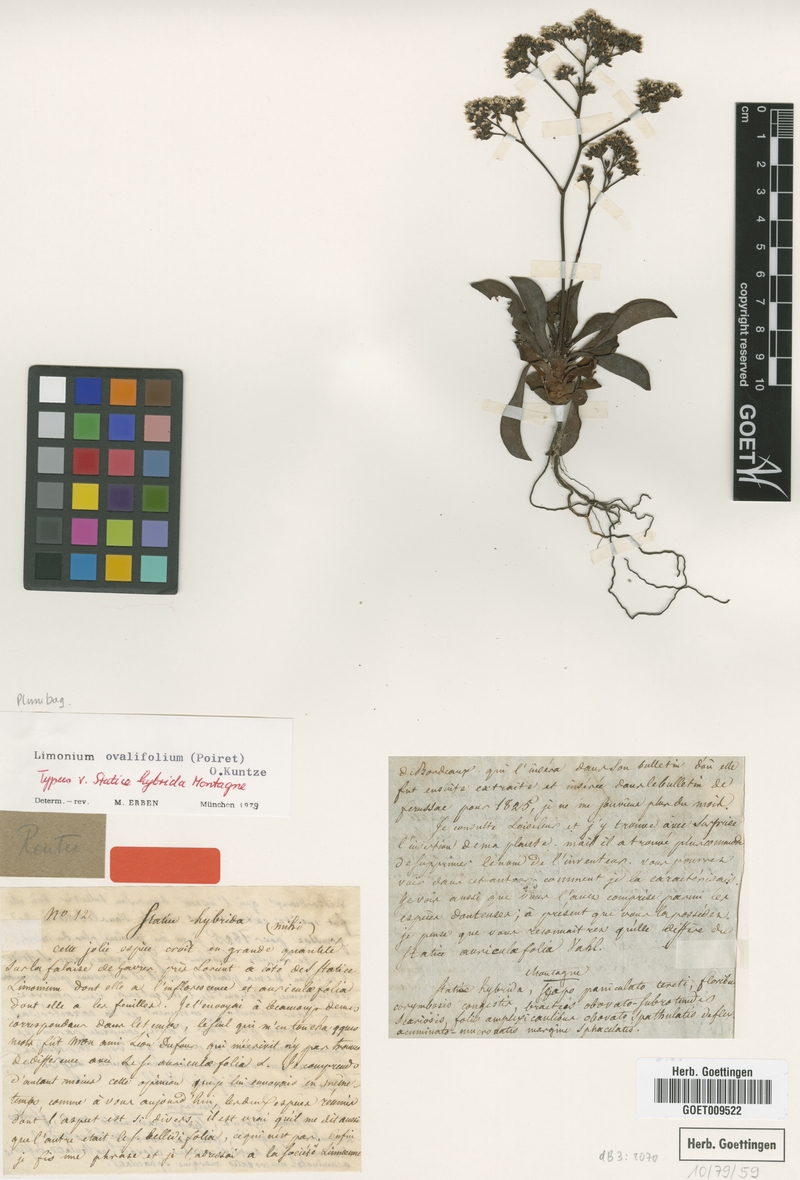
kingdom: Plantae
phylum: Tracheophyta
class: Magnoliopsida
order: Caryophyllales
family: Plumbaginaceae
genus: Limonium
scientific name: Limonium ovalifolium
